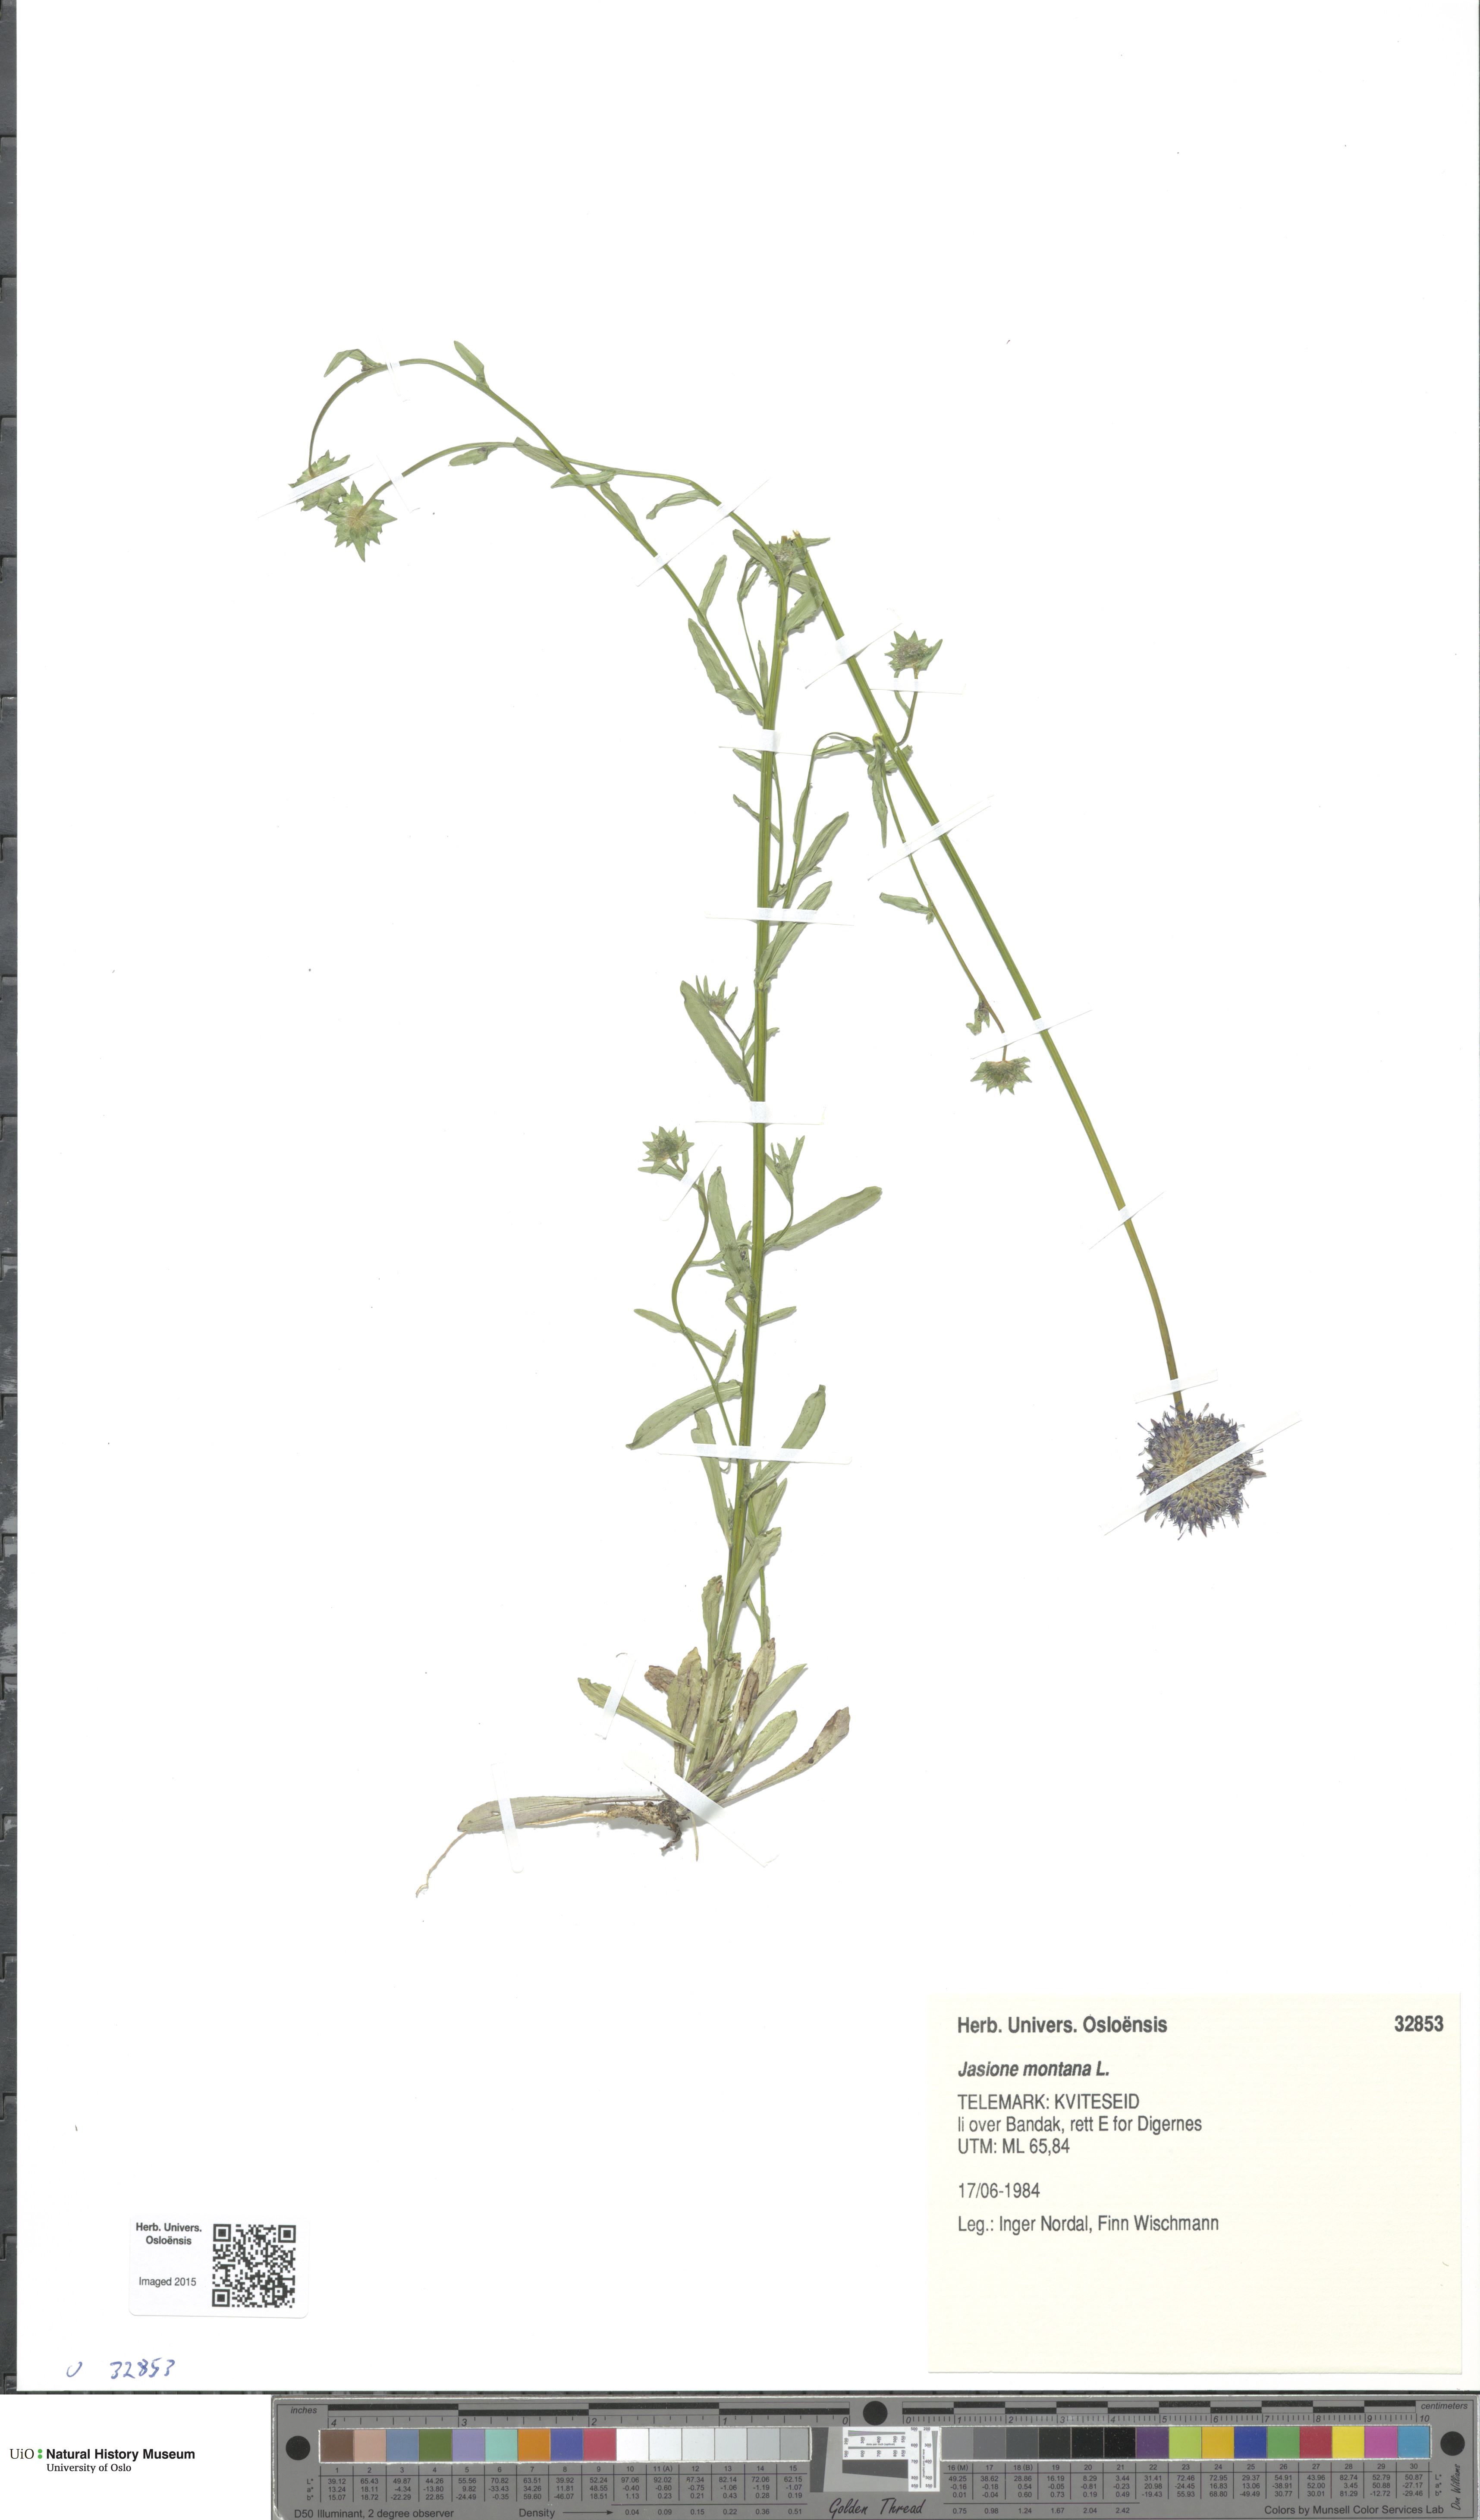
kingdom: Plantae
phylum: Tracheophyta
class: Magnoliopsida
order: Asterales
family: Campanulaceae
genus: Jasione
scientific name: Jasione montana
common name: Sheep's-bit
